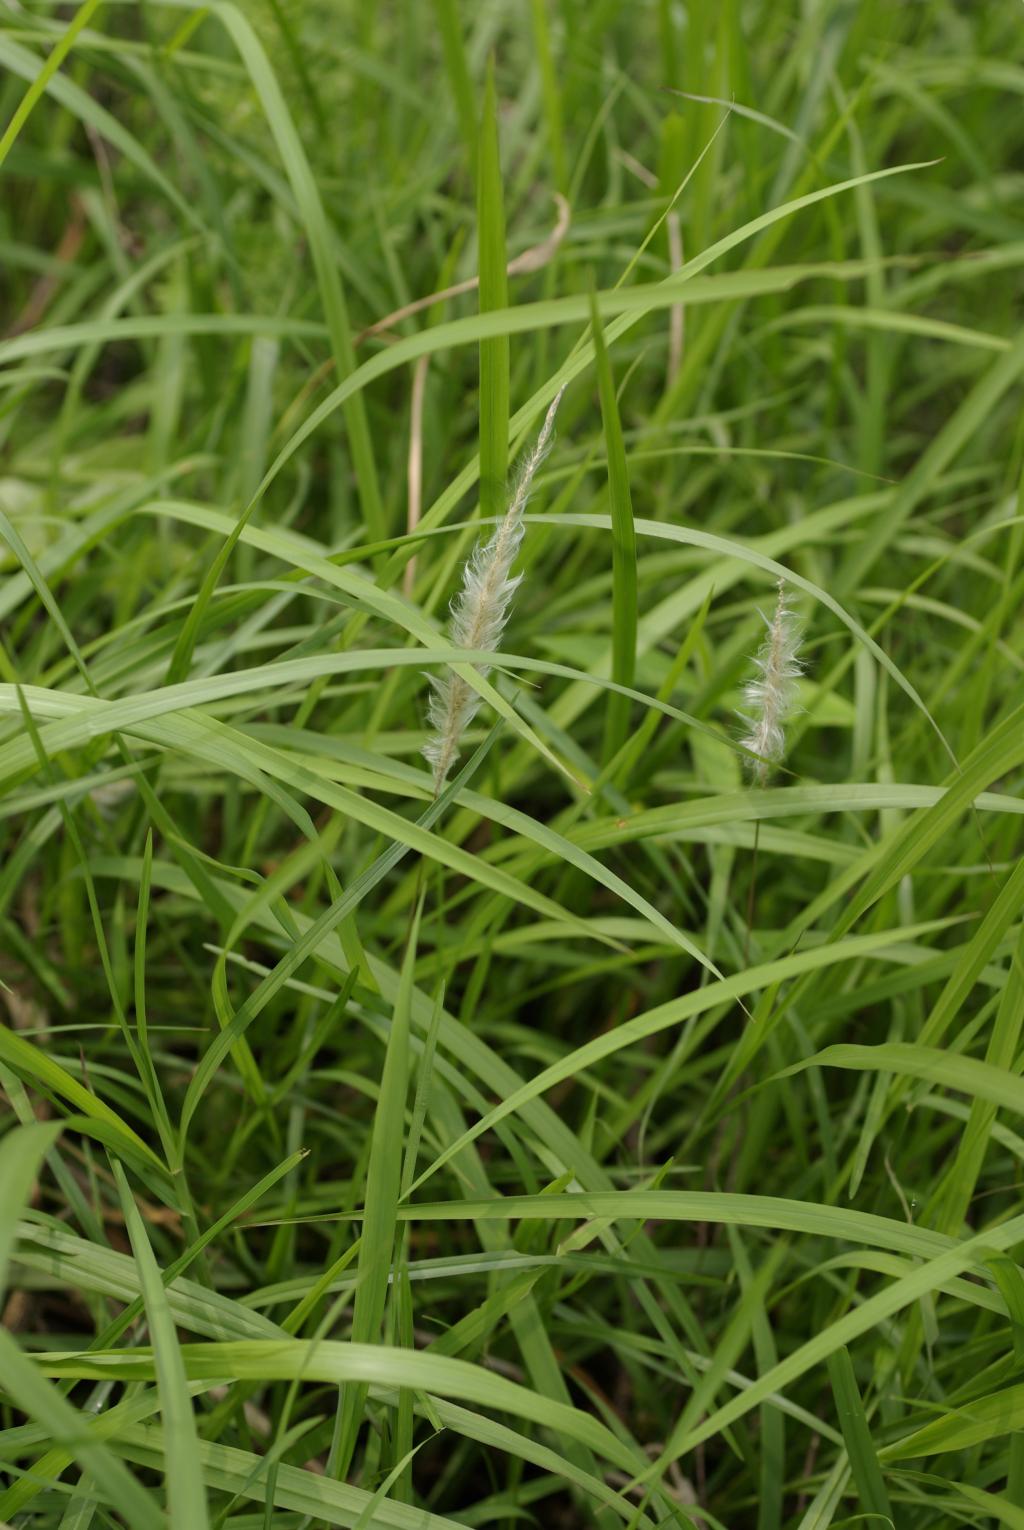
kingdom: Plantae
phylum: Tracheophyta
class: Liliopsida
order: Poales
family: Poaceae
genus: Imperata
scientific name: Imperata cylindrica
